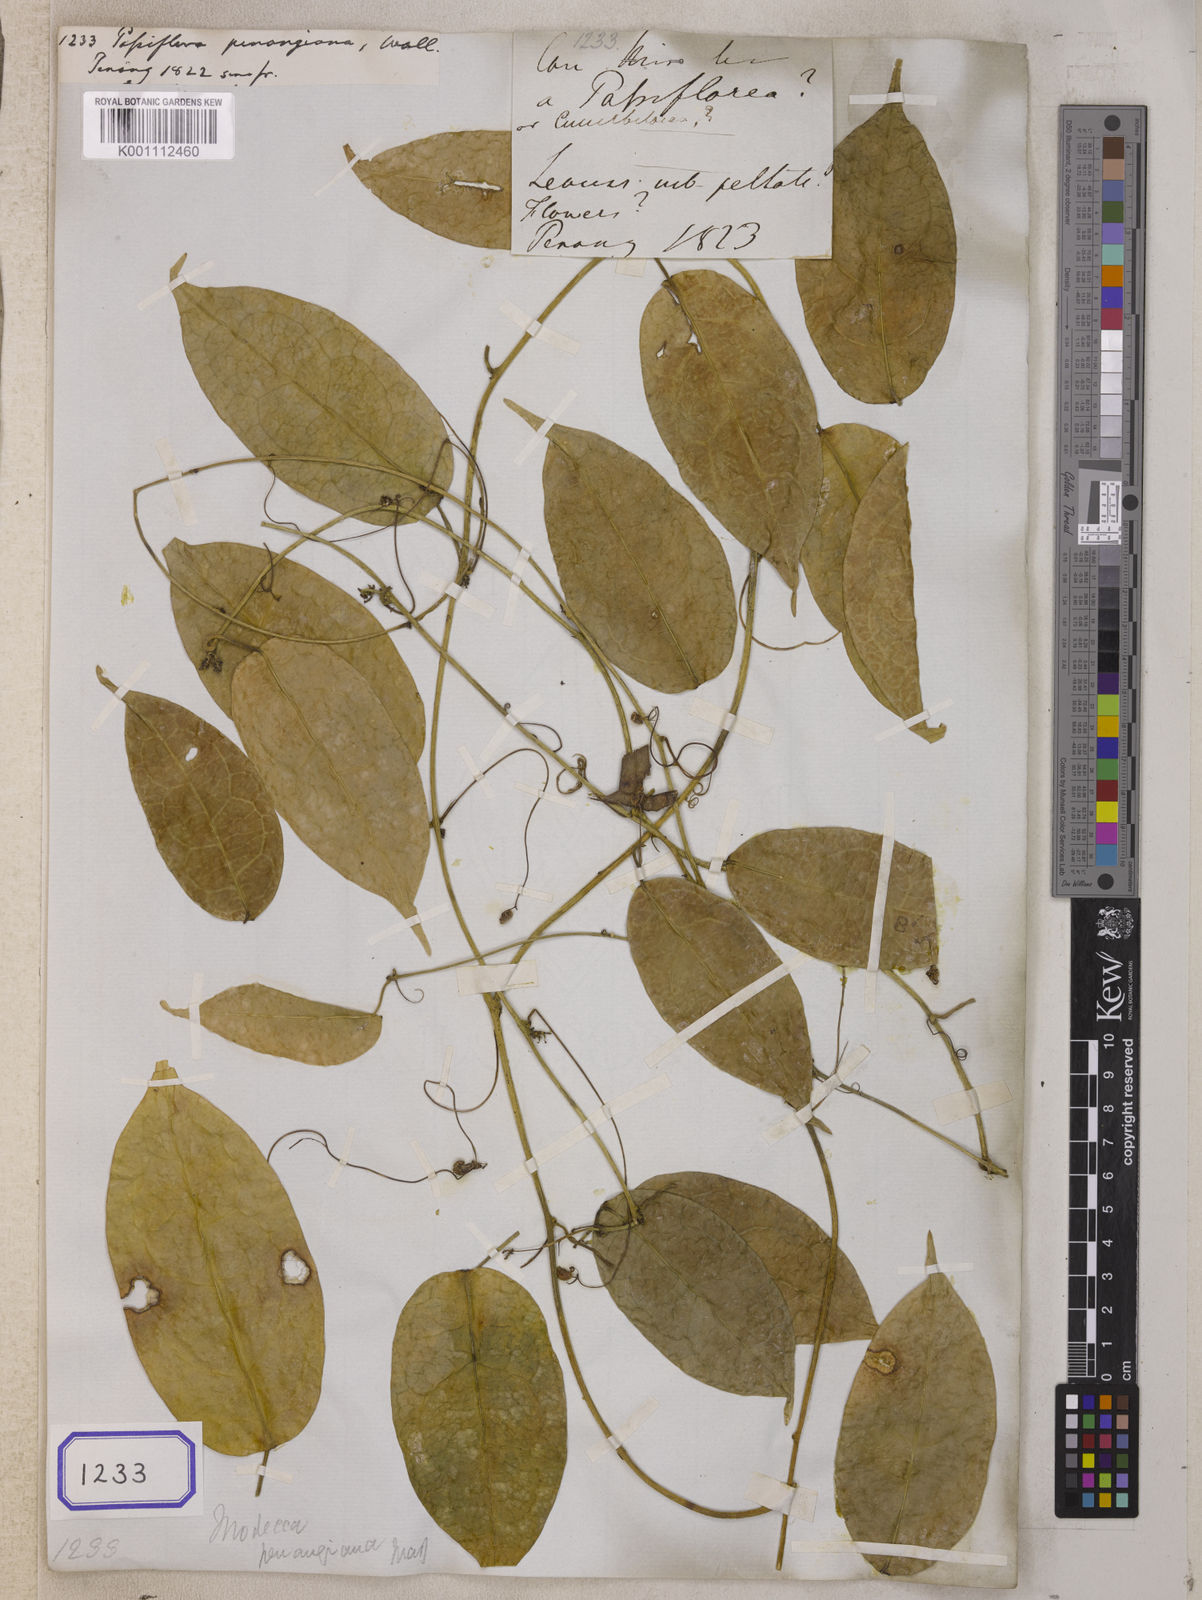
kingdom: Plantae
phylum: Tracheophyta
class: Magnoliopsida
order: Malpighiales
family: Passifloraceae
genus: Passiflora
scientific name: Passiflora
